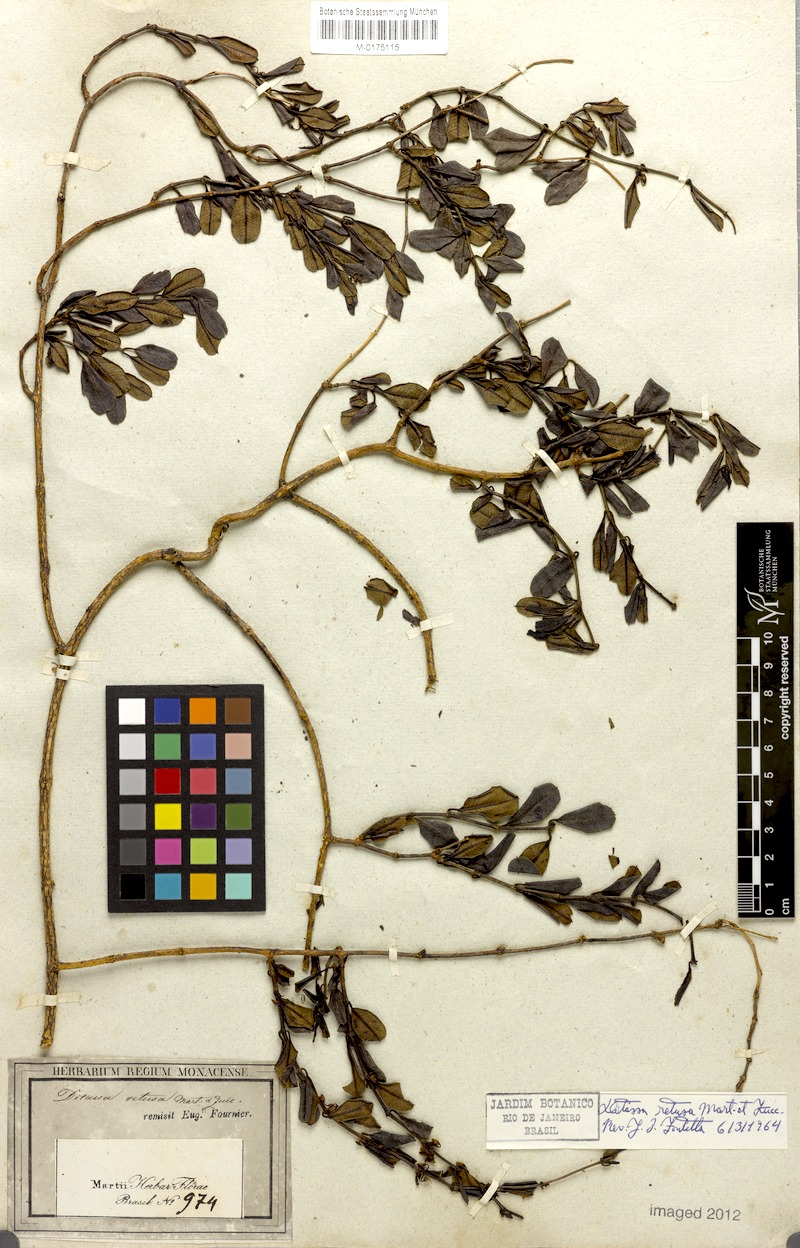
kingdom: Plantae
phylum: Tracheophyta
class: Magnoliopsida
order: Gentianales
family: Apocynaceae
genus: Ditassa
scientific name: Ditassa retusa
